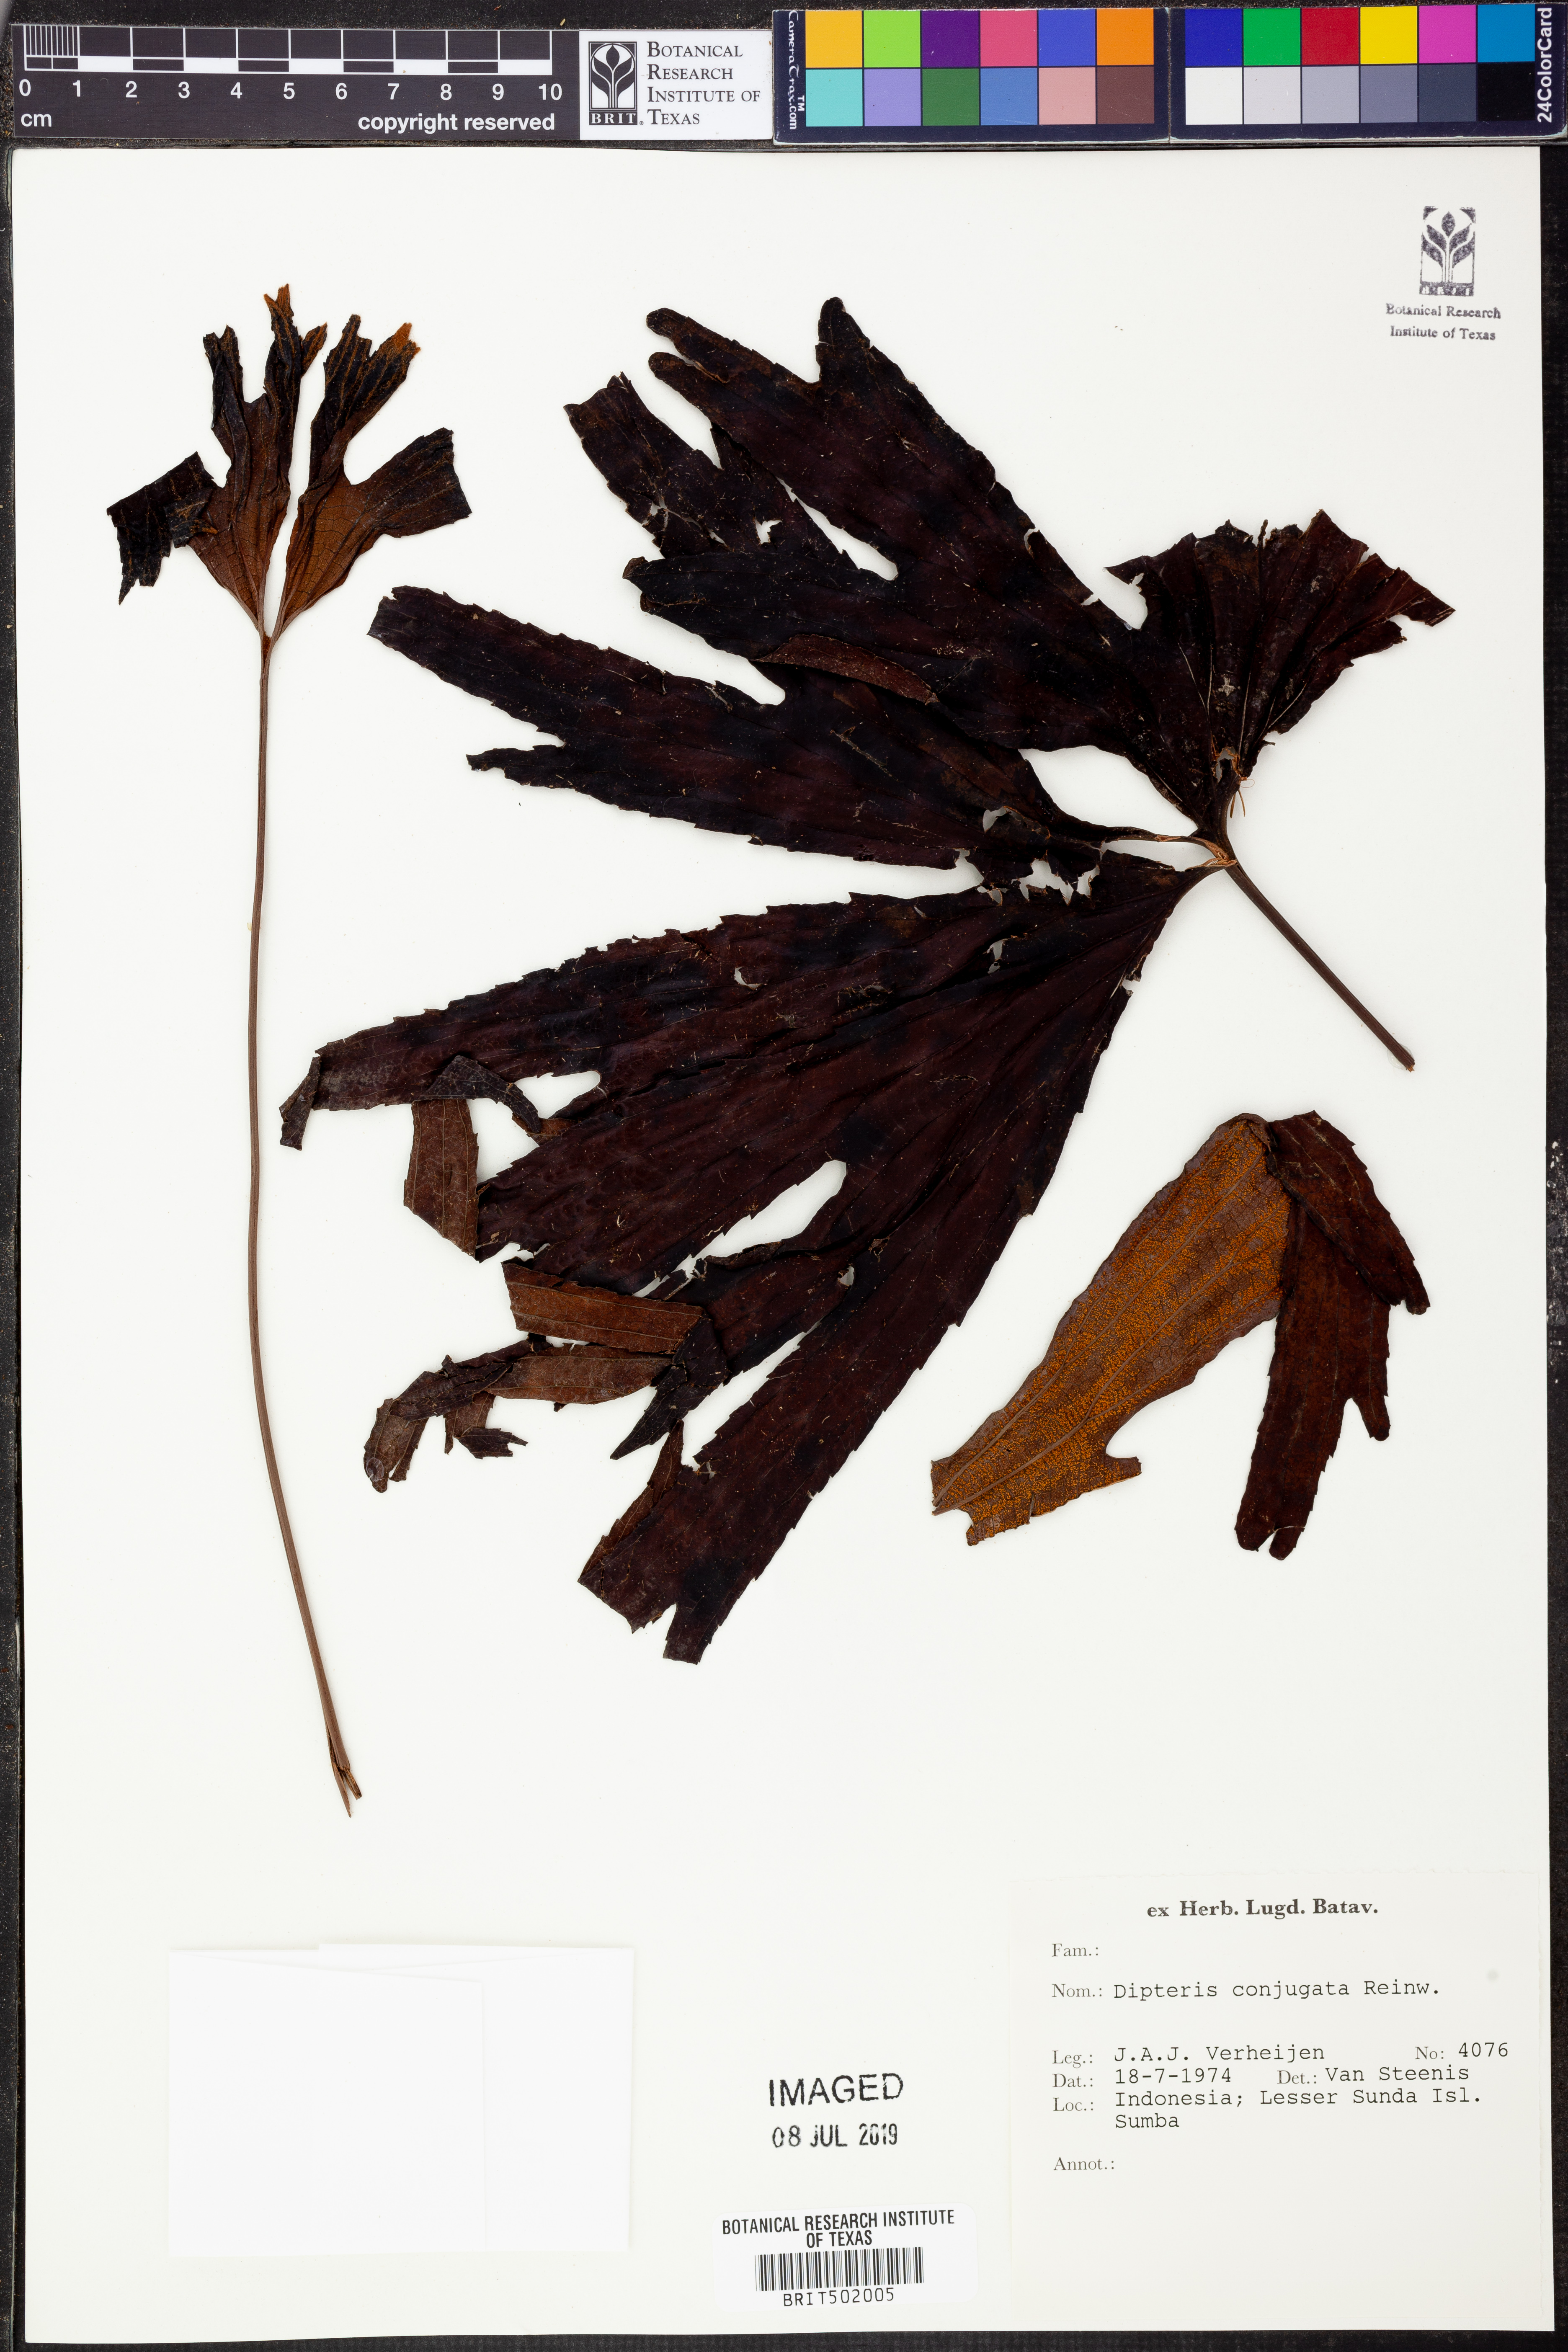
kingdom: Plantae
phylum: Tracheophyta
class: Polypodiopsida
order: Gleicheniales
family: Dipteridaceae
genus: Dipteris
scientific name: Dipteris conjugata
